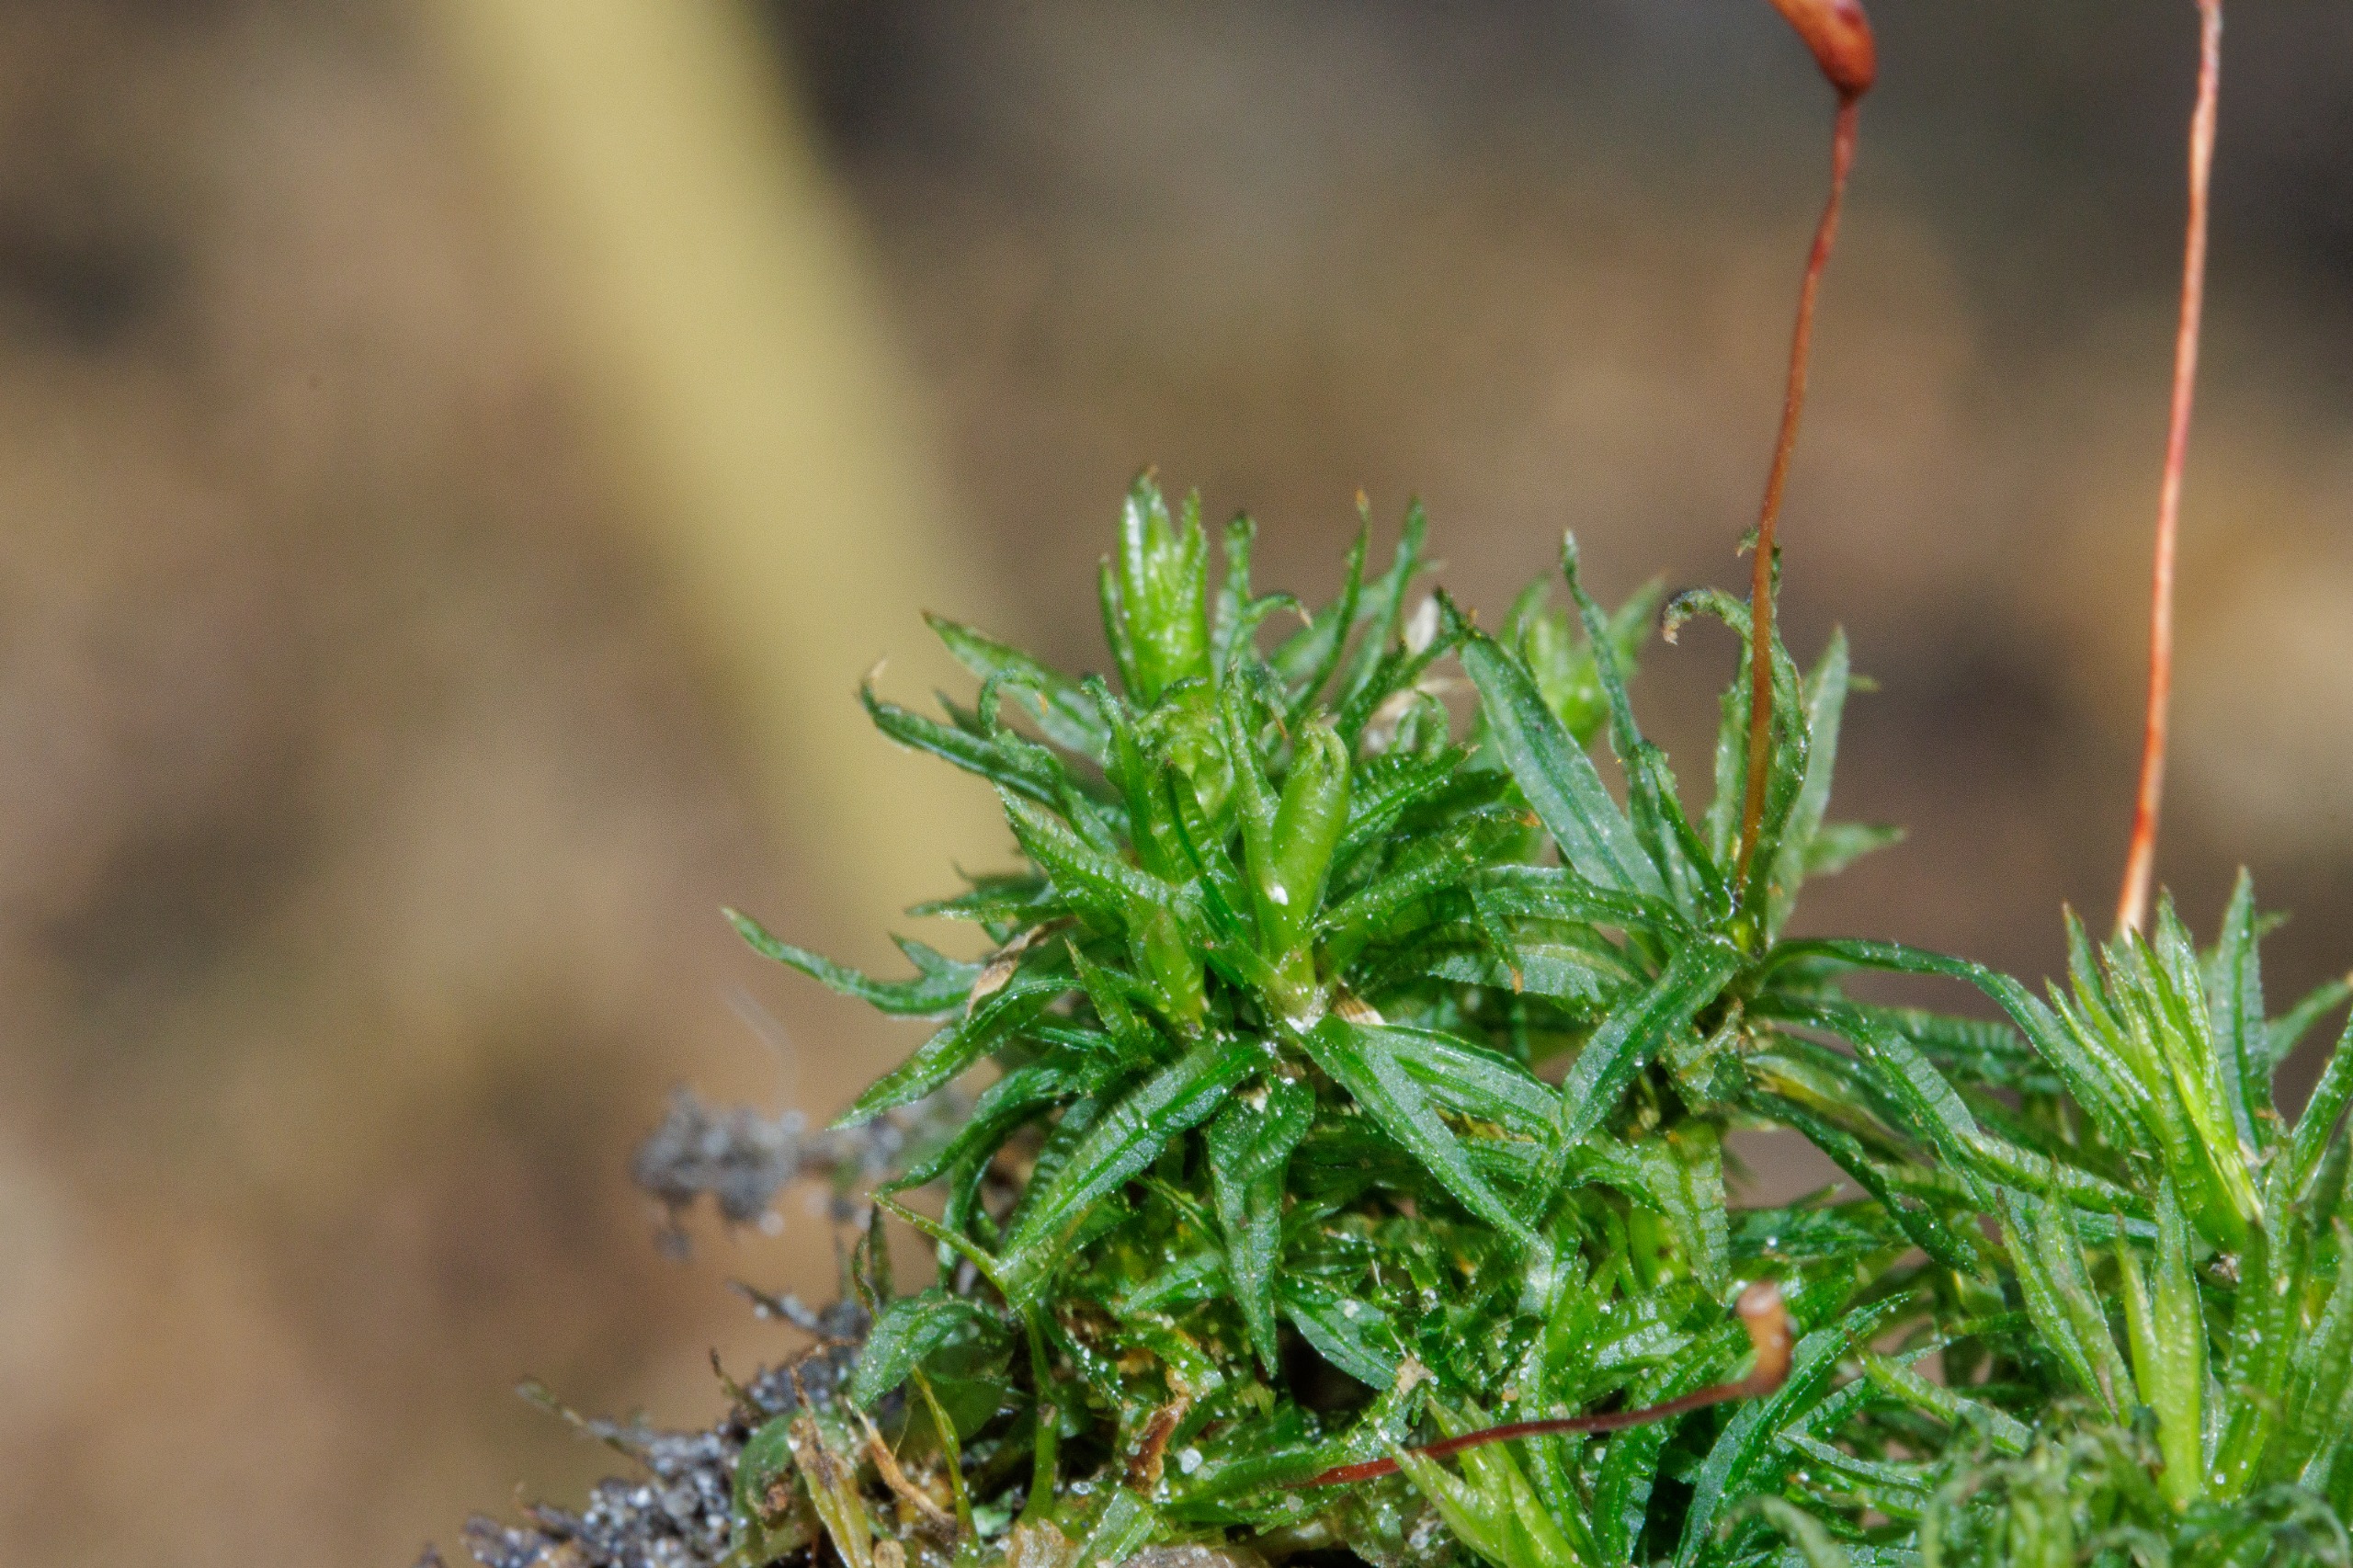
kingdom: Plantae
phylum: Bryophyta
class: Polytrichopsida
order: Polytrichales
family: Polytrichaceae
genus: Atrichum
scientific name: Atrichum undulatum
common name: Bølget katrinemos
